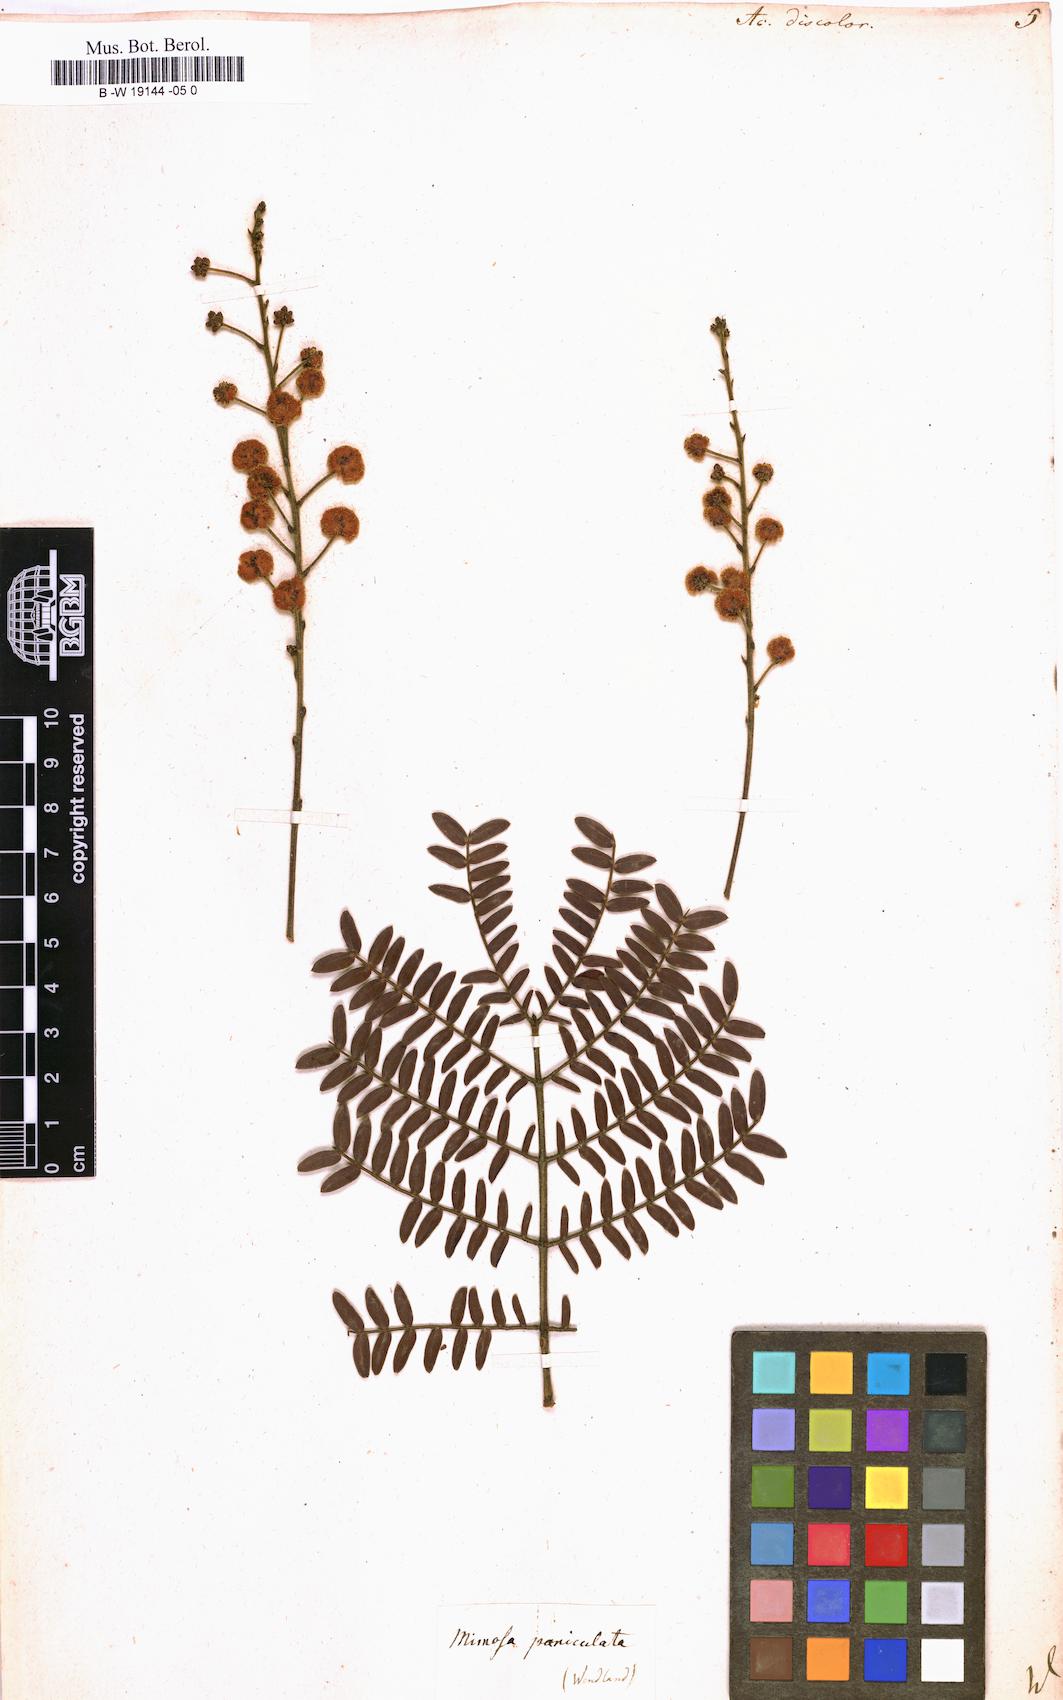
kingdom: Plantae
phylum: Tracheophyta
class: Magnoliopsida
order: Fabales
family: Fabaceae
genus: Acacia
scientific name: Acacia terminalis
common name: Cedar wattle
